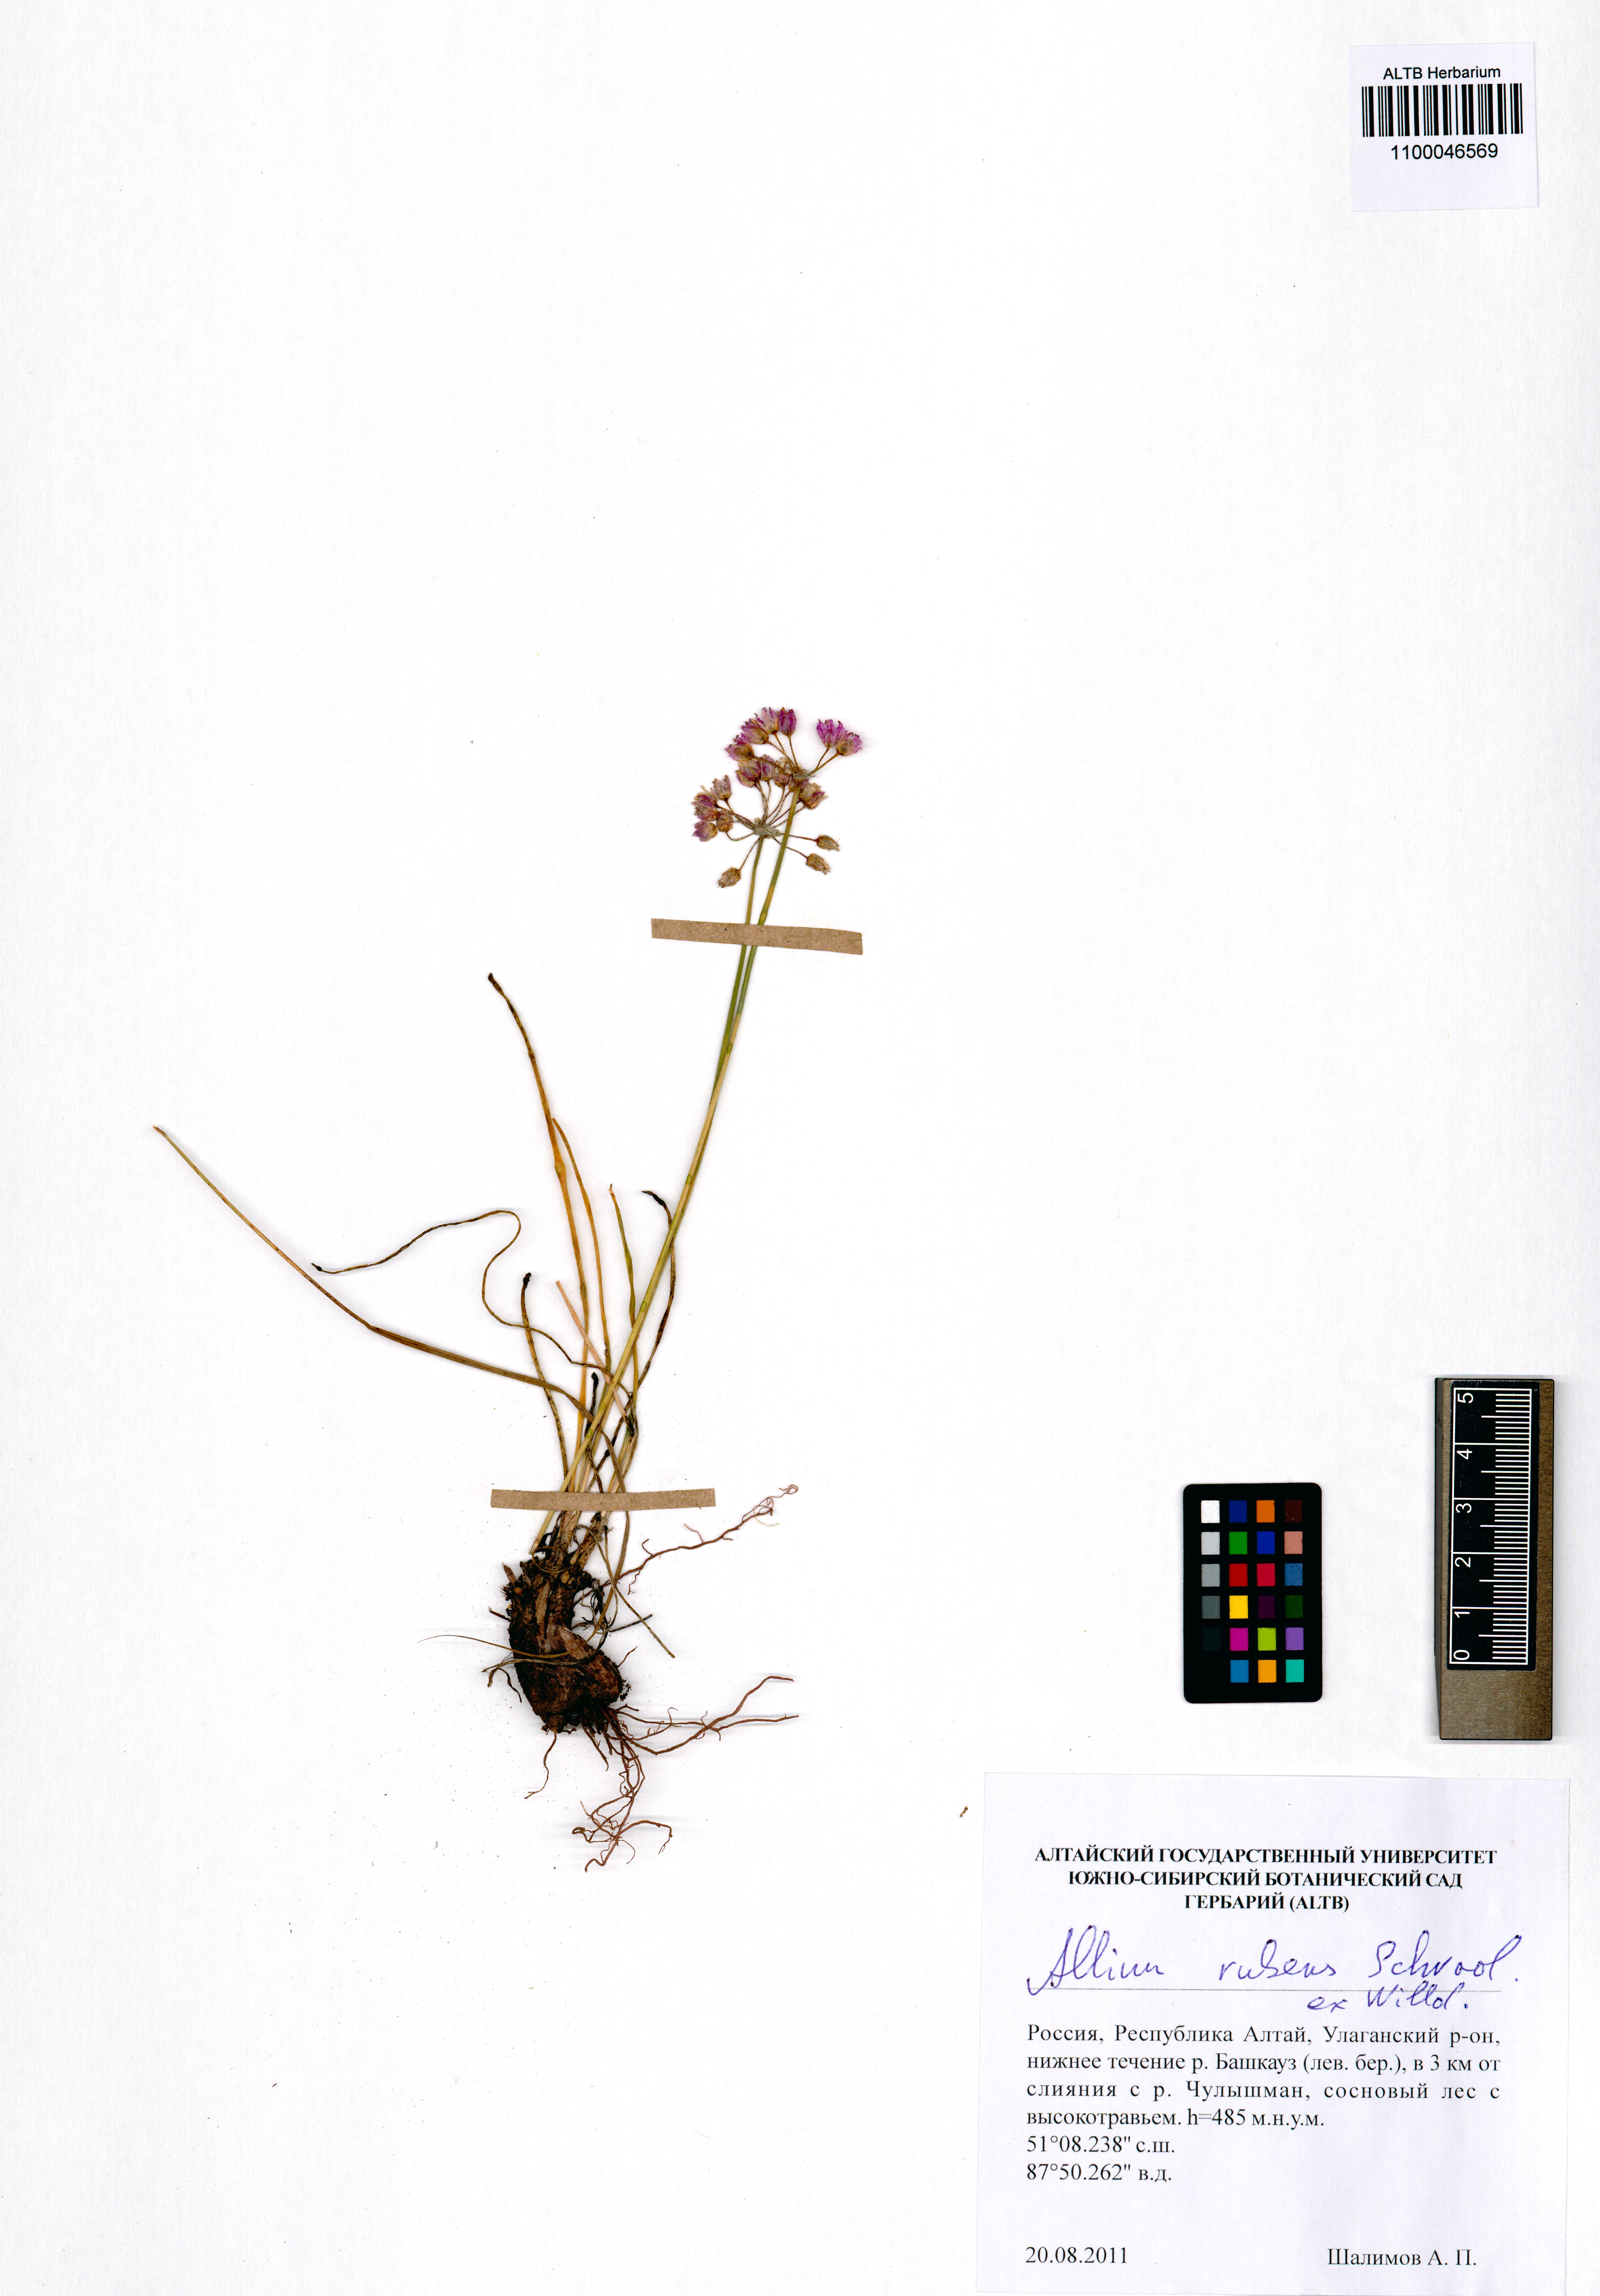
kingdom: Plantae
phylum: Tracheophyta
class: Liliopsida
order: Asparagales
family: Amaryllidaceae
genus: Allium
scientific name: Allium rubens
